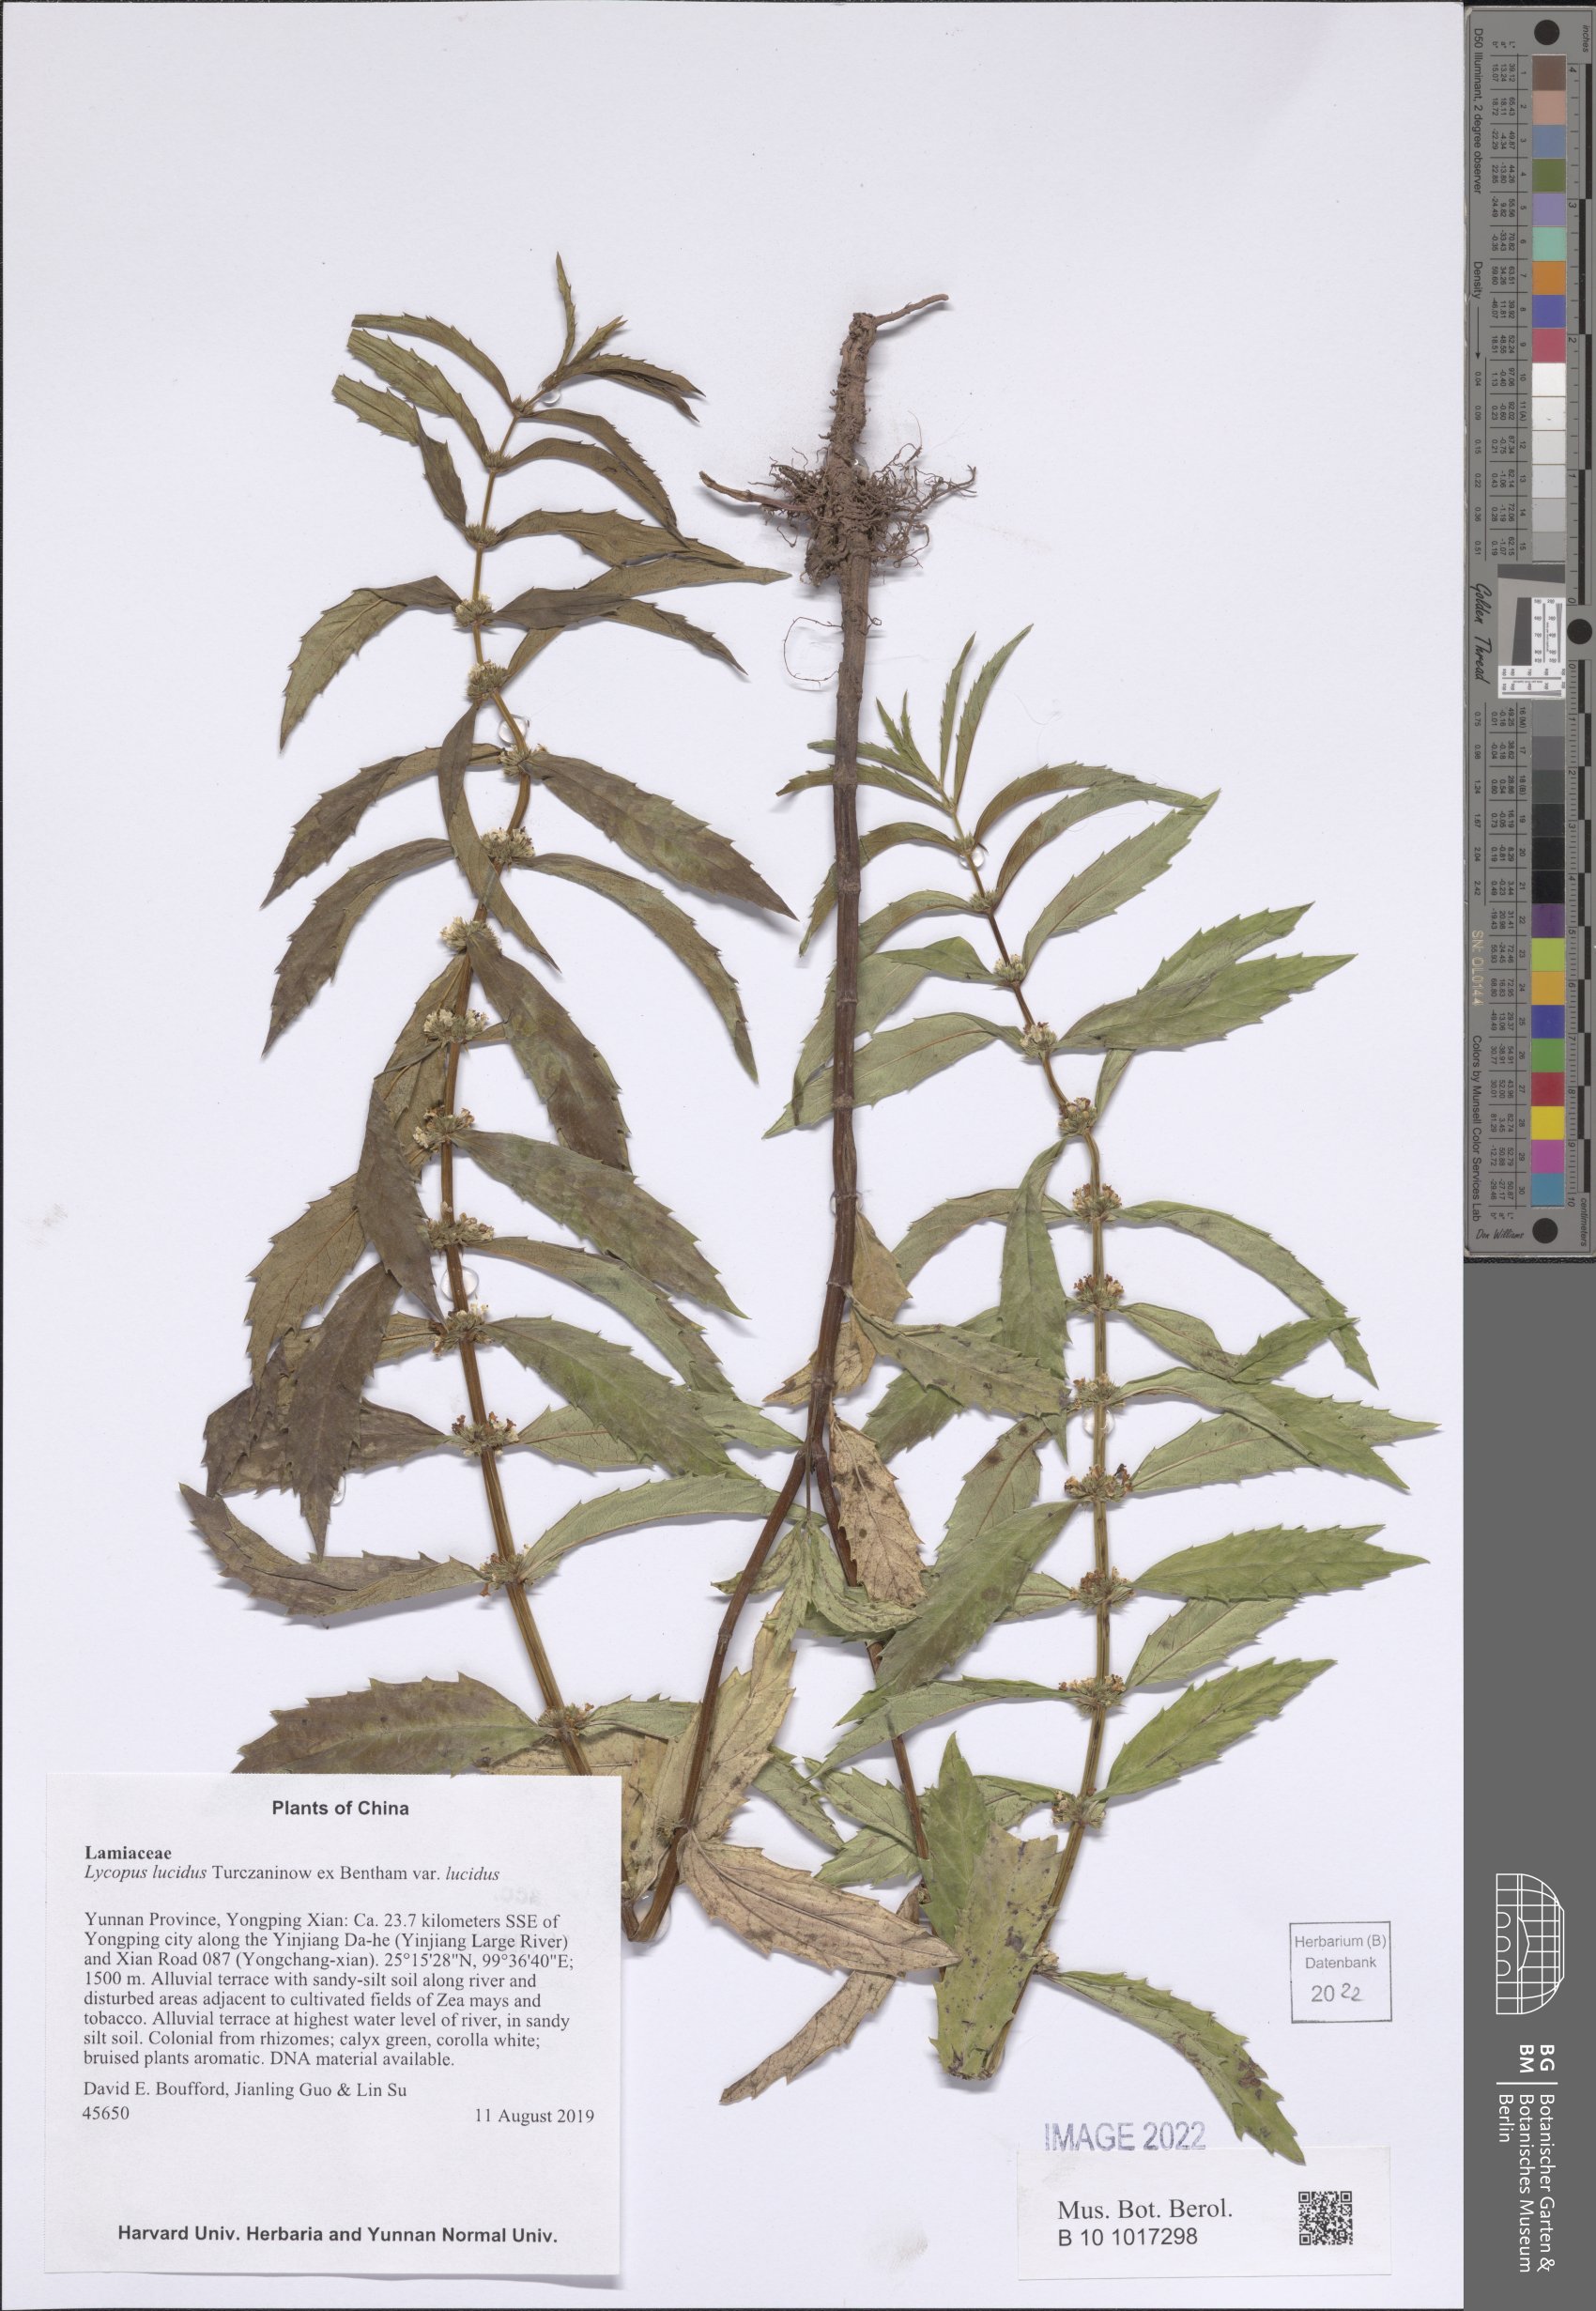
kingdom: Plantae
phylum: Tracheophyta
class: Magnoliopsida
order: Lamiales
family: Lamiaceae
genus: Lycopus
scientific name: Lycopus lucidus
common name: Shiny bugleweed
